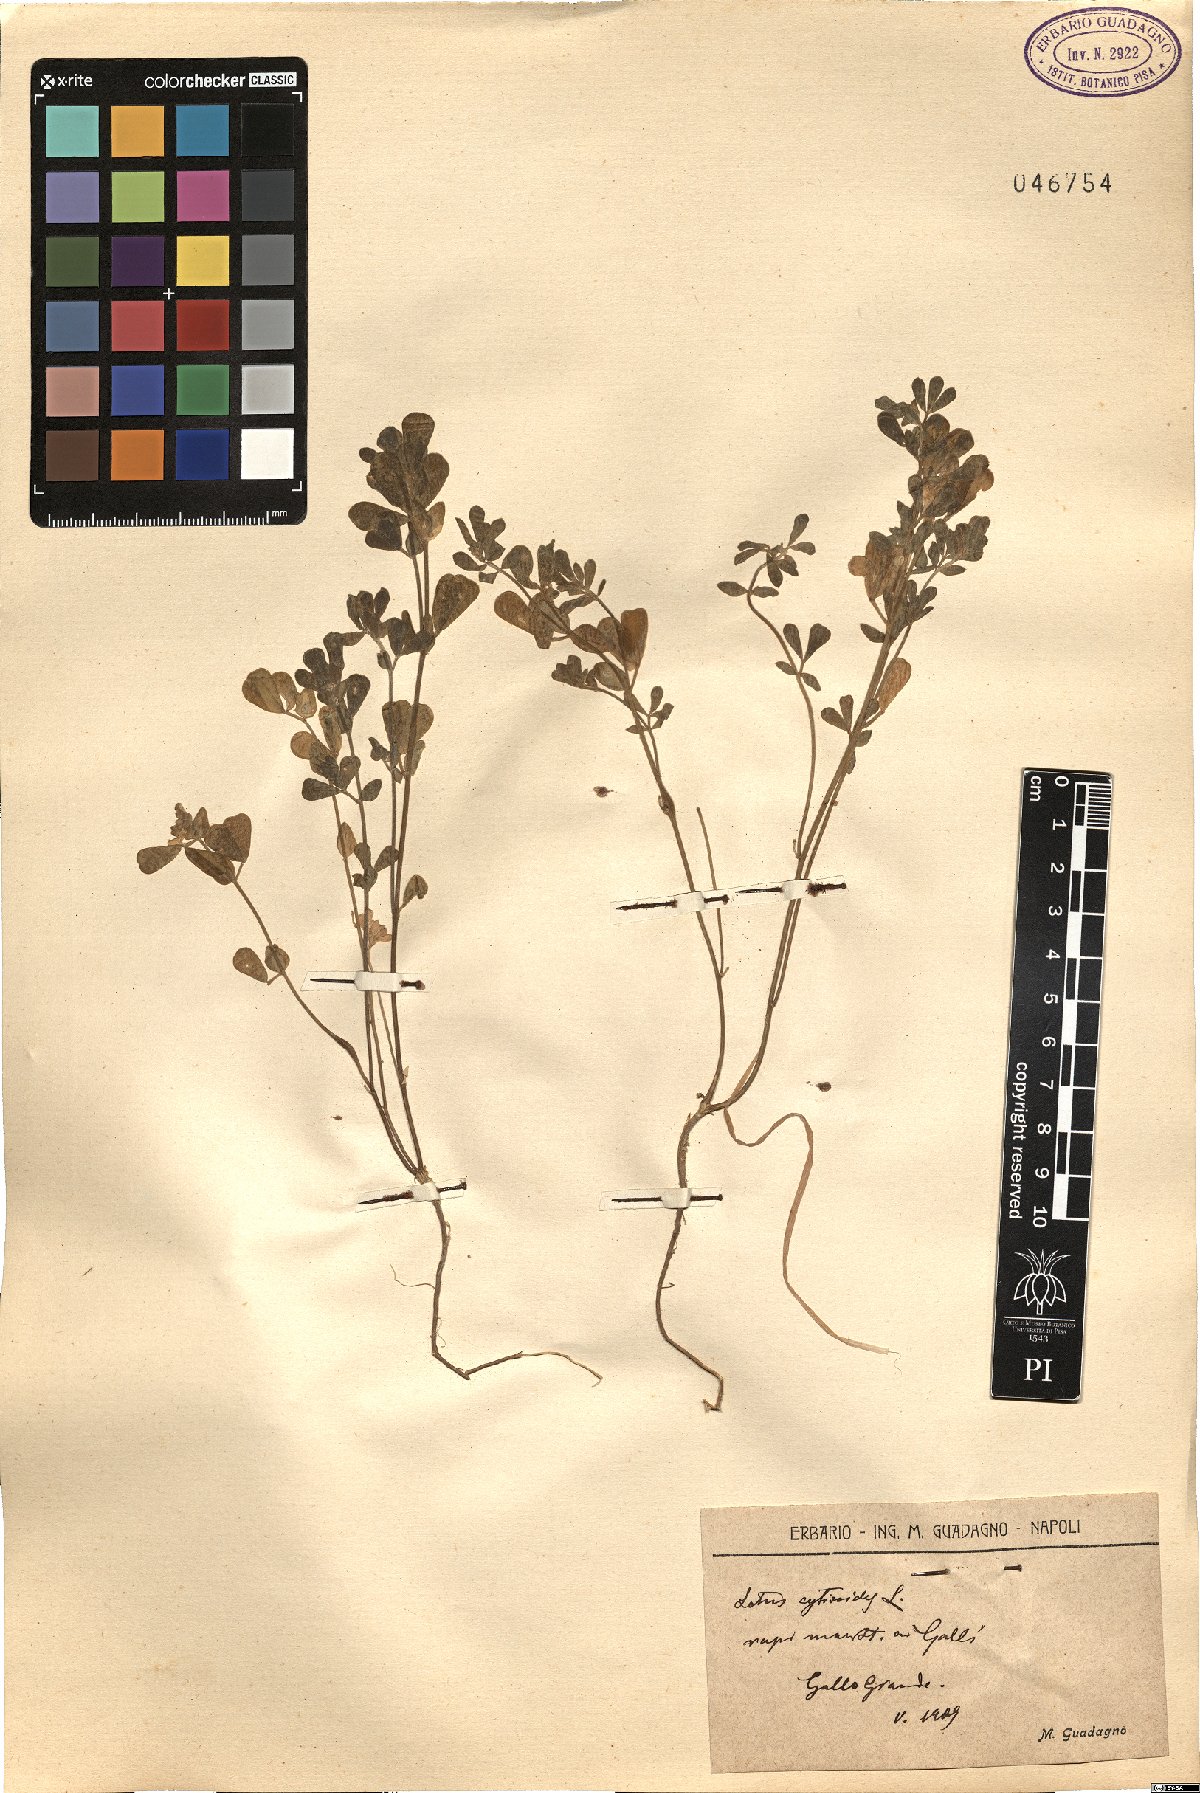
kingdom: Plantae
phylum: Tracheophyta
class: Magnoliopsida
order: Fabales
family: Fabaceae
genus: Lotus
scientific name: Lotus cytisoides
